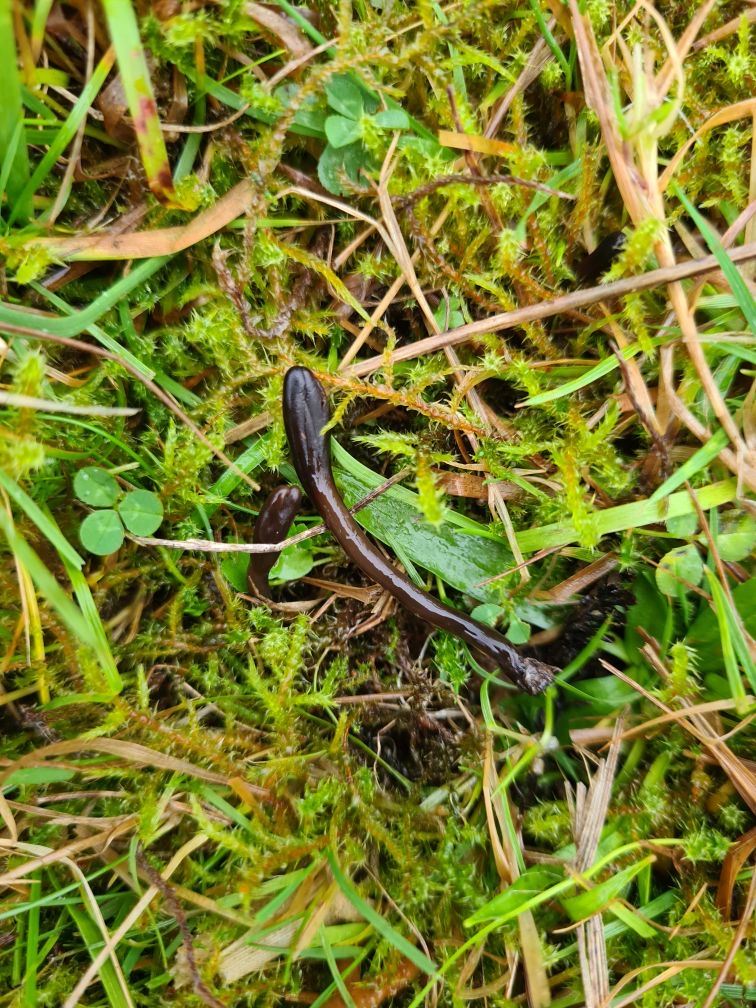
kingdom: Fungi
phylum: Ascomycota
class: Geoglossomycetes
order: Geoglossales
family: Geoglossaceae
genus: Glutinoglossum
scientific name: Glutinoglossum glutinosum
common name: slimet jordtunge
